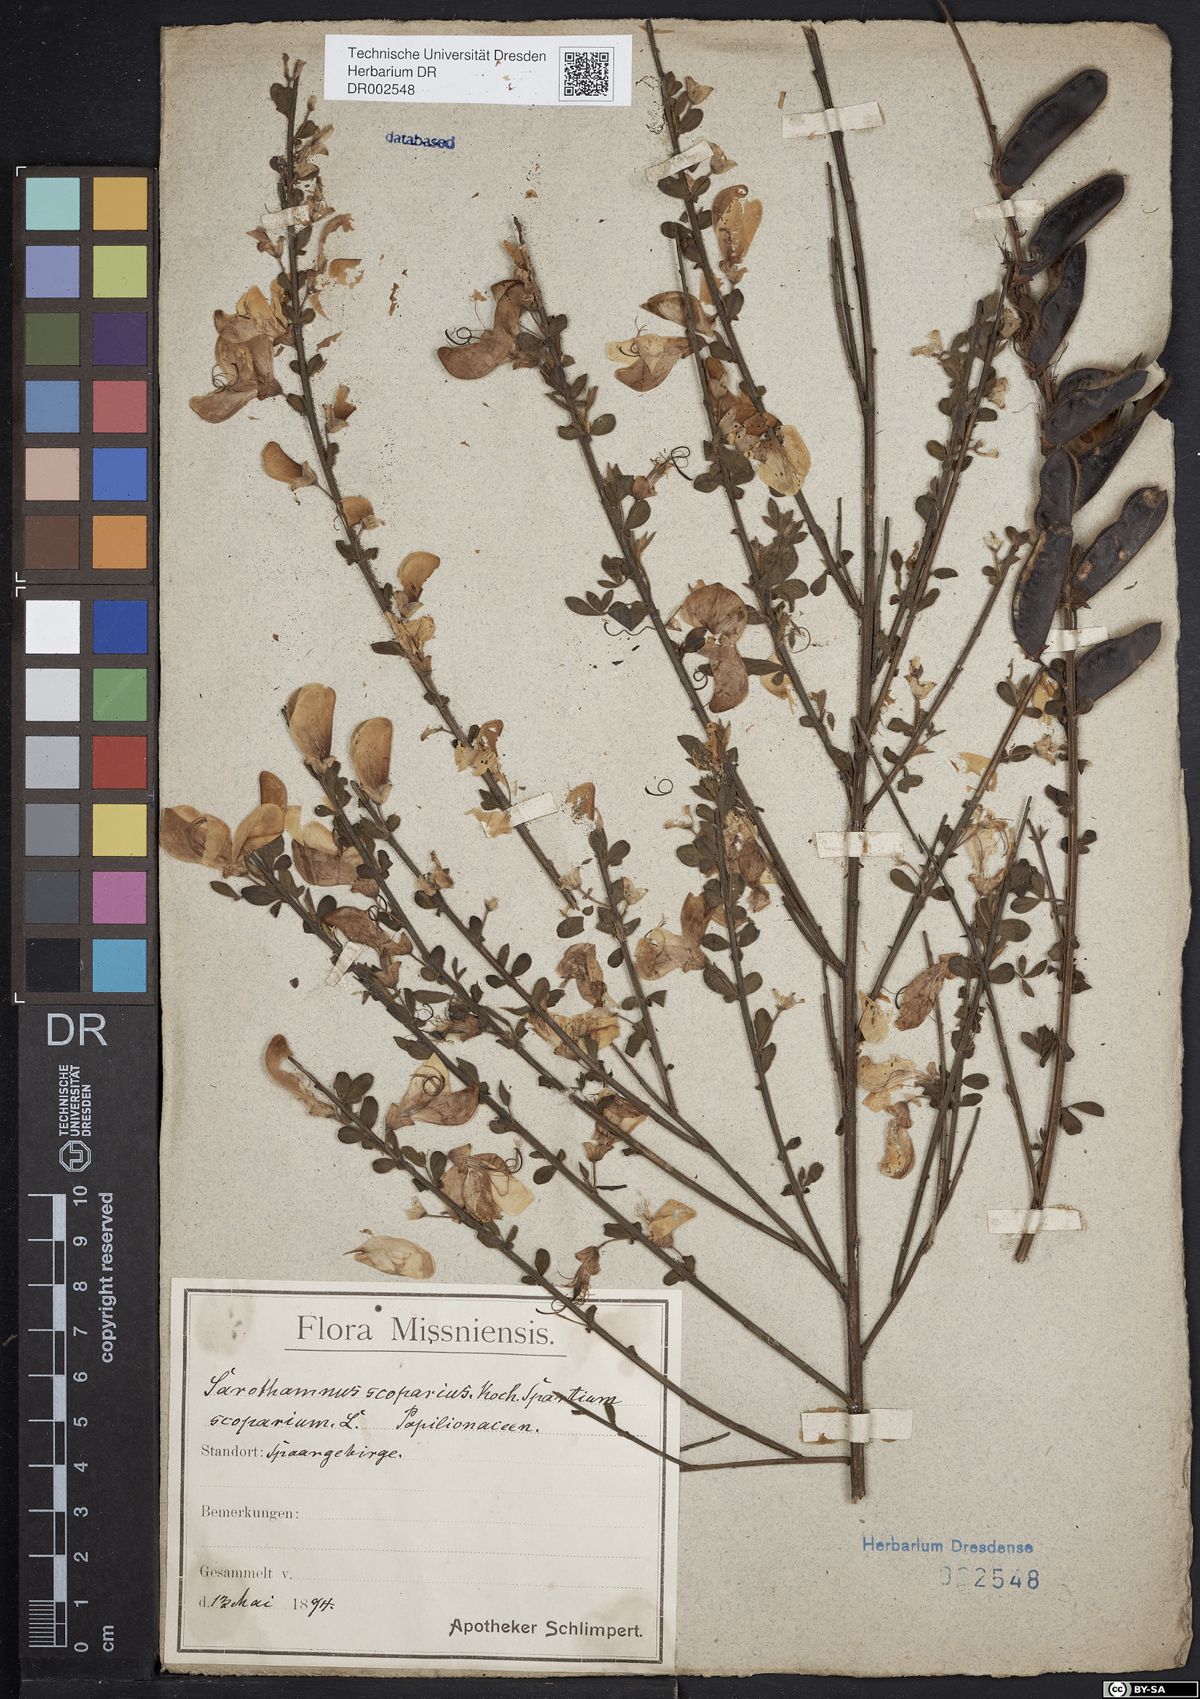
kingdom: Plantae
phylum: Tracheophyta
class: Magnoliopsida
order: Fabales
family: Fabaceae
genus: Cytisus
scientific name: Cytisus scoparius
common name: Scotch broom
